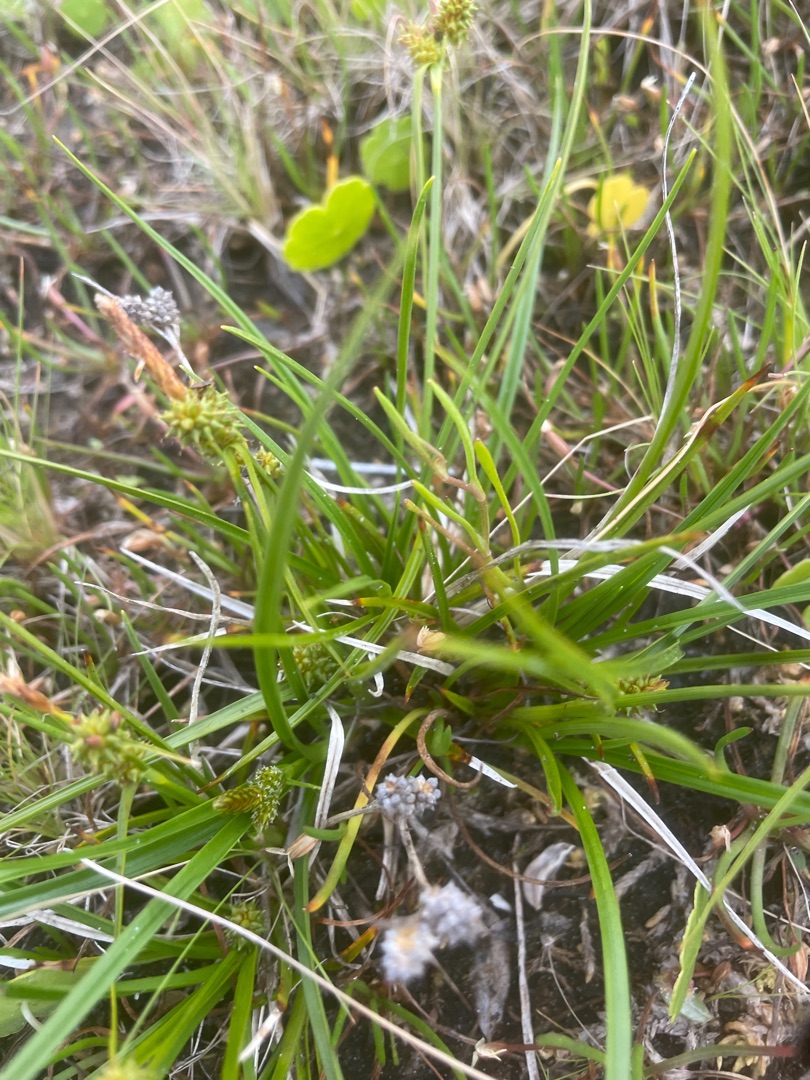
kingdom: Plantae
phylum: Tracheophyta
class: Liliopsida
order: Poales
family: Cyperaceae
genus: Carex
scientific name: Carex oederi
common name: Dværg-star
